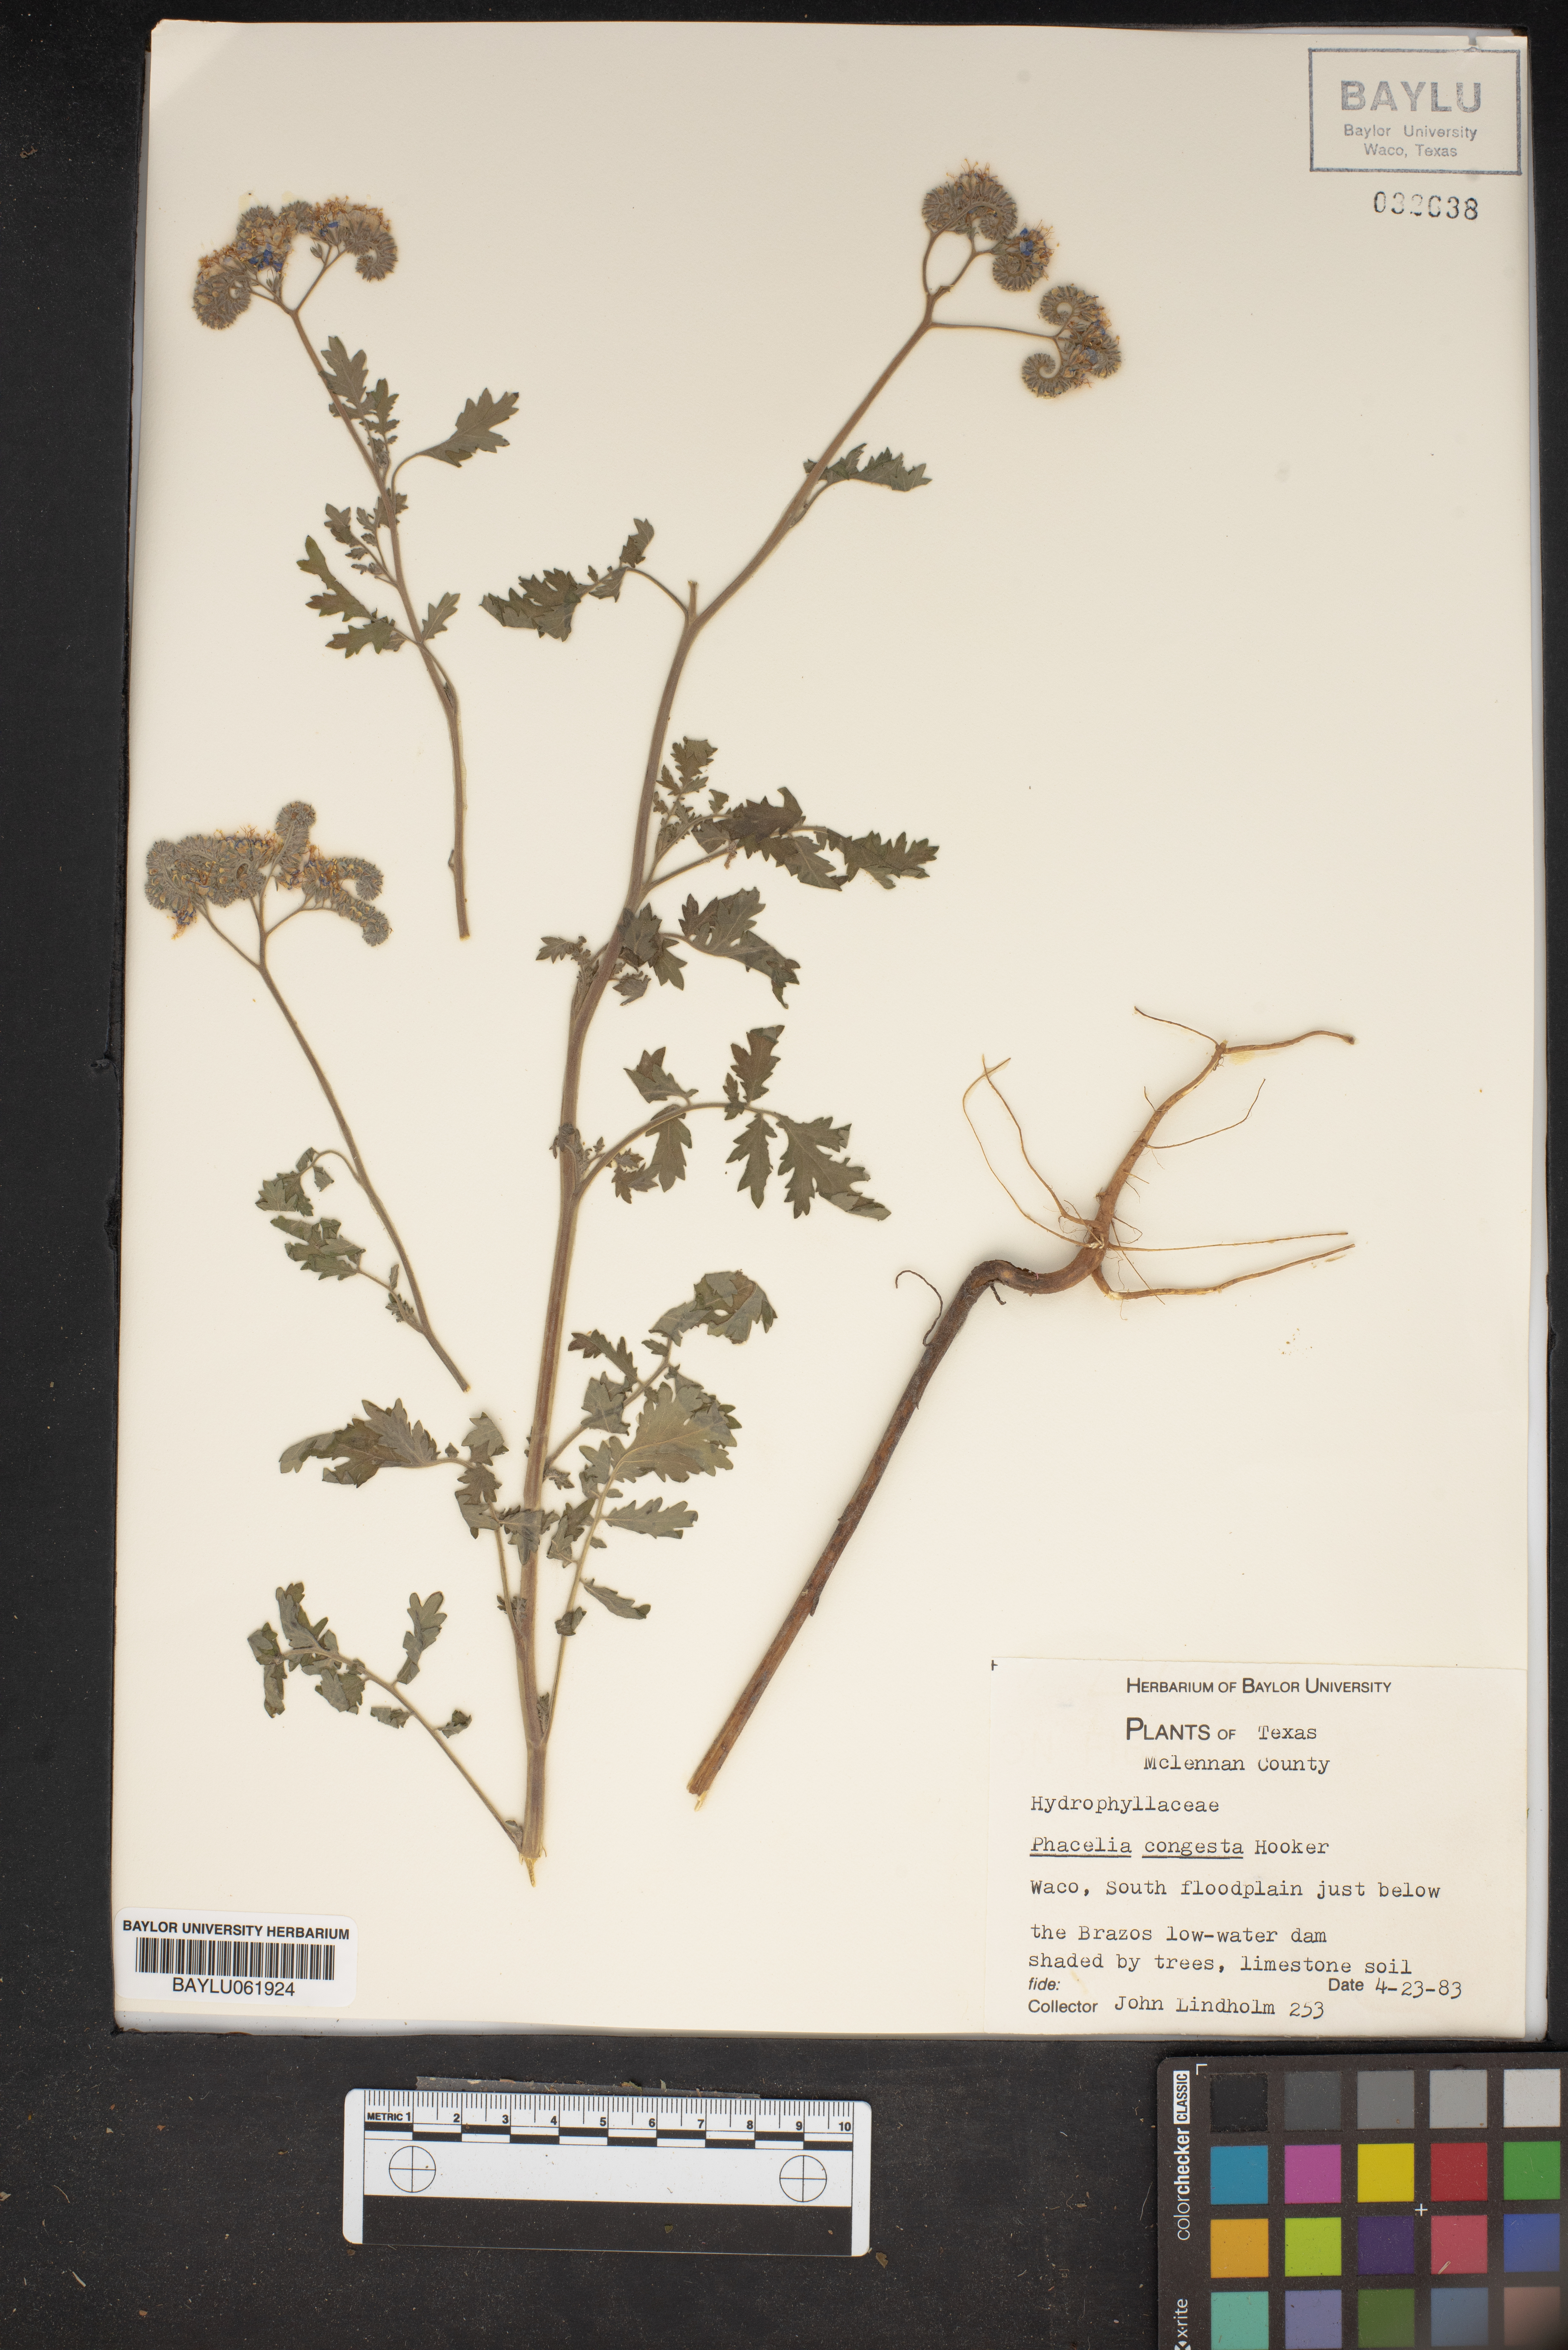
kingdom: Plantae
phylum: Tracheophyta
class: Magnoliopsida
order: Boraginales
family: Hydrophyllaceae
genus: Phacelia
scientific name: Phacelia congesta
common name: Blue curls
